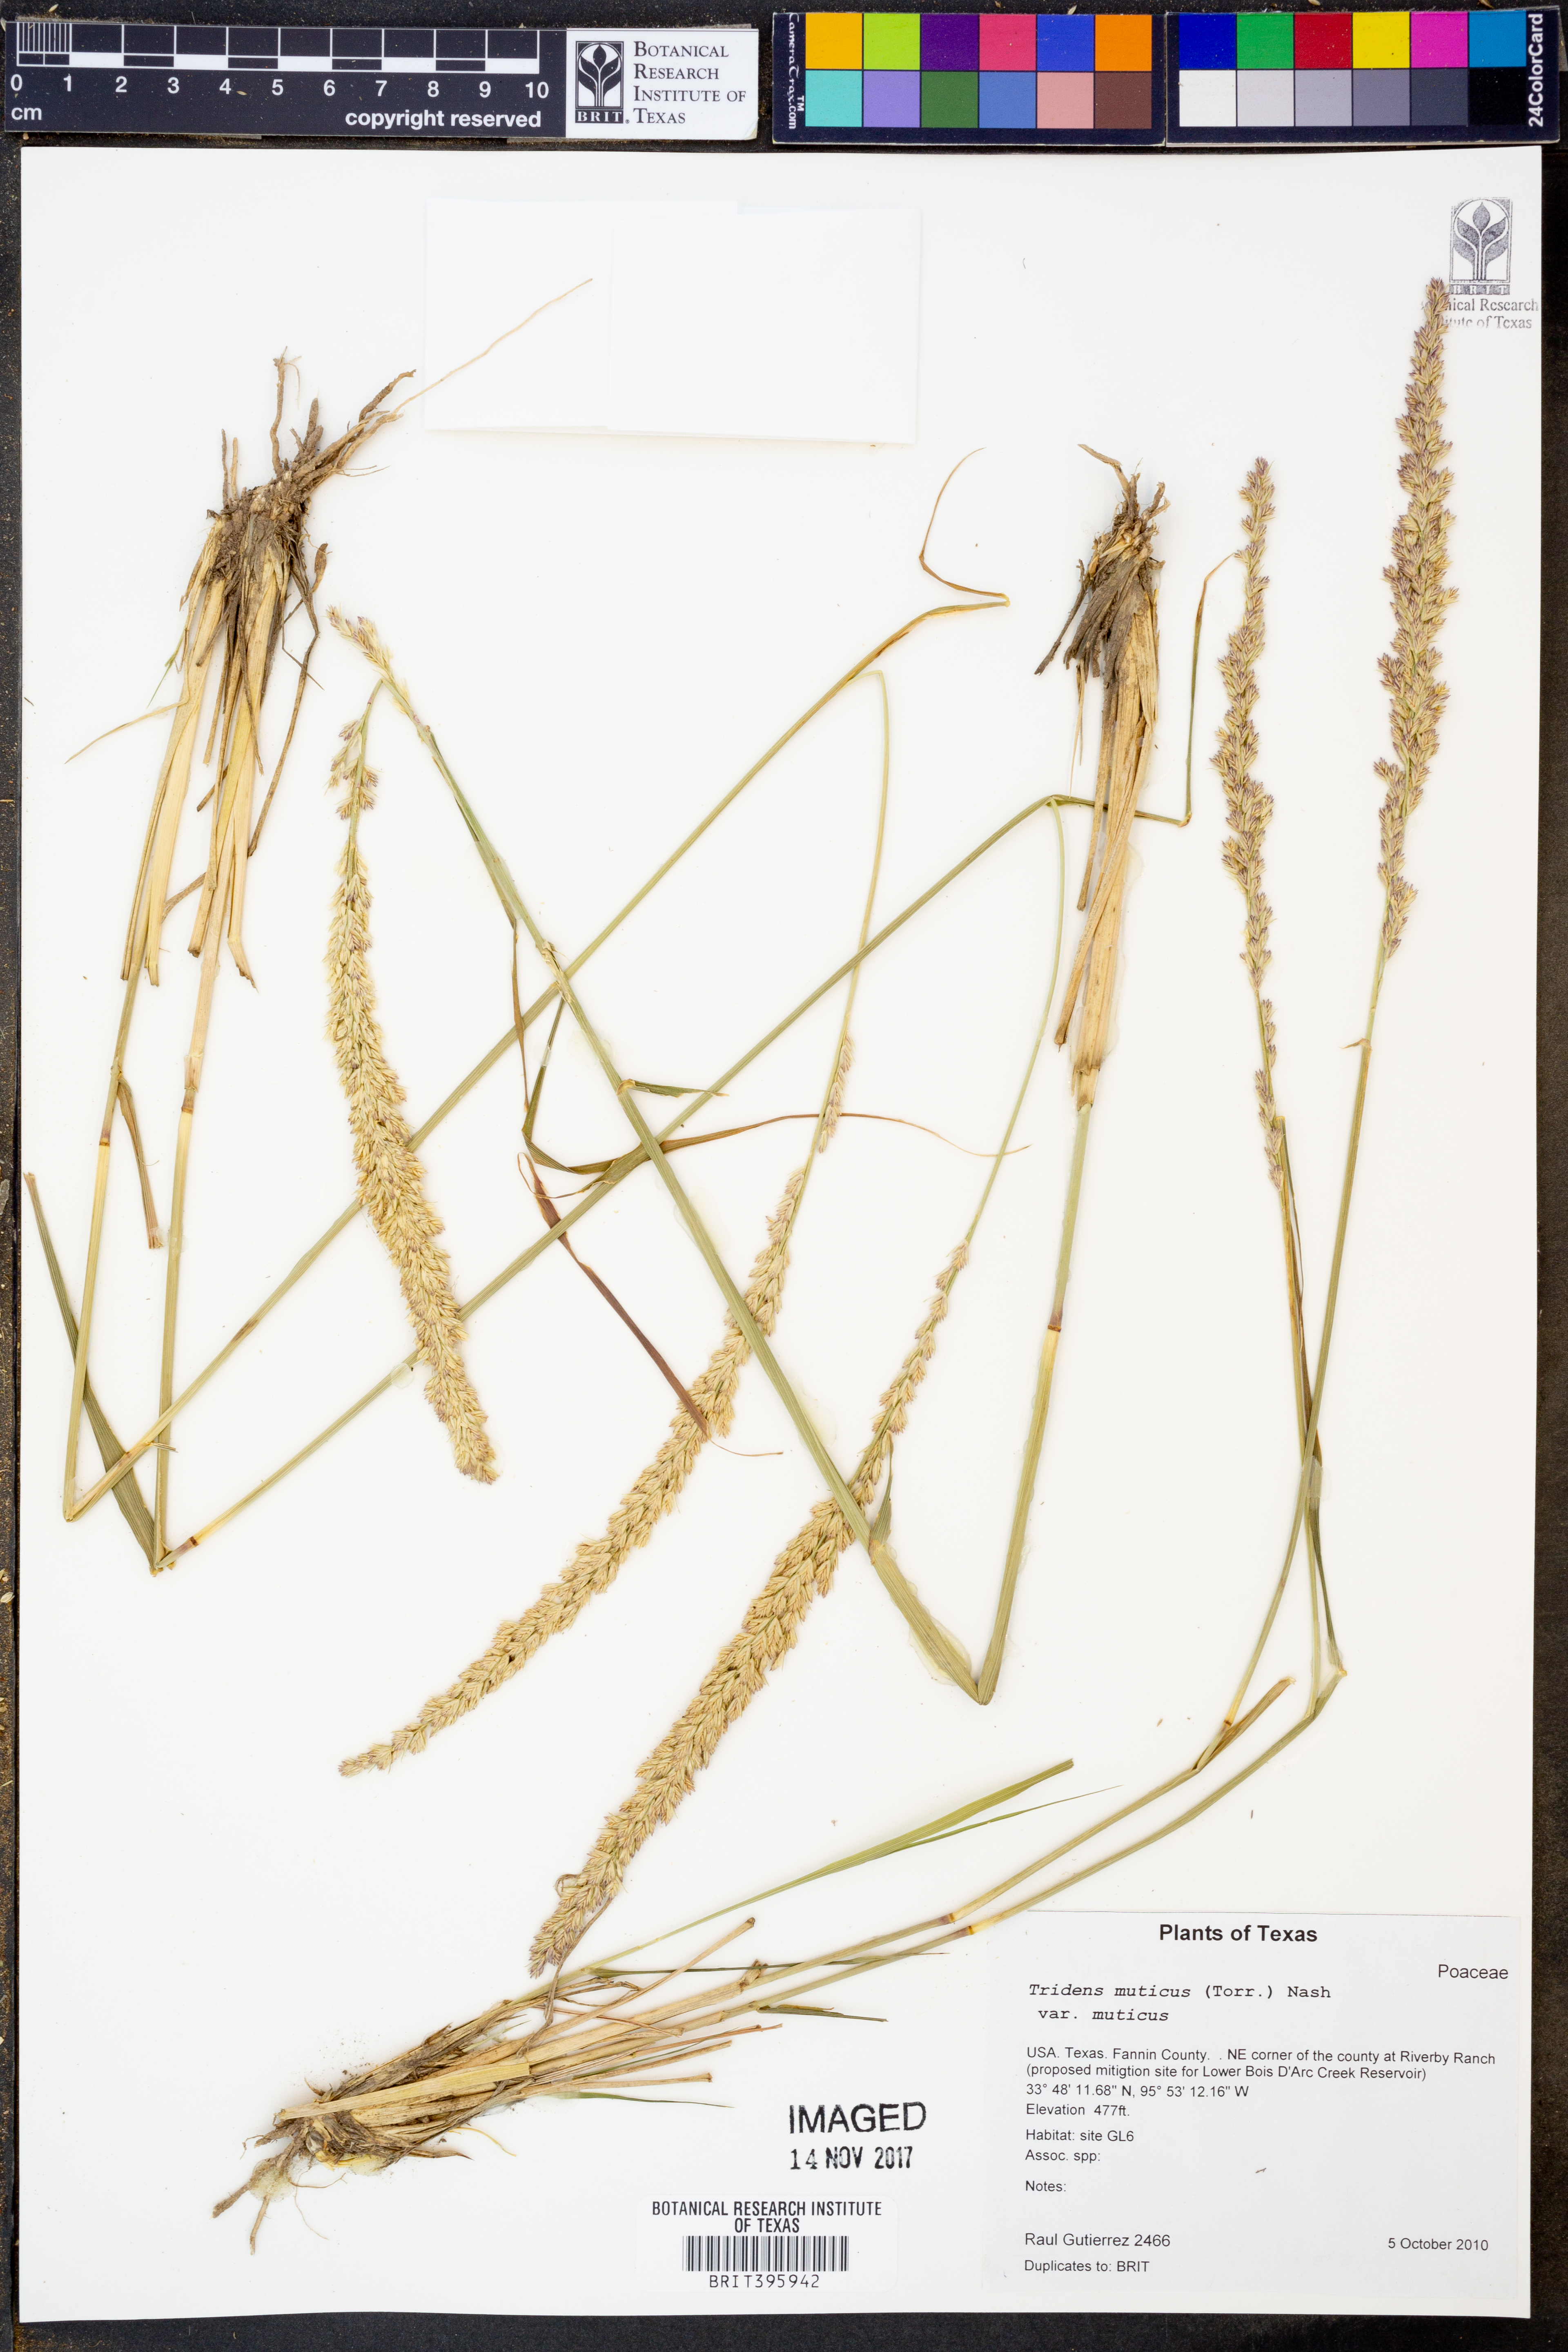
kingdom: Plantae
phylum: Tracheophyta
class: Liliopsida
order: Poales
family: Poaceae
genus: Tridentopsis
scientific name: Tridentopsis mutica
